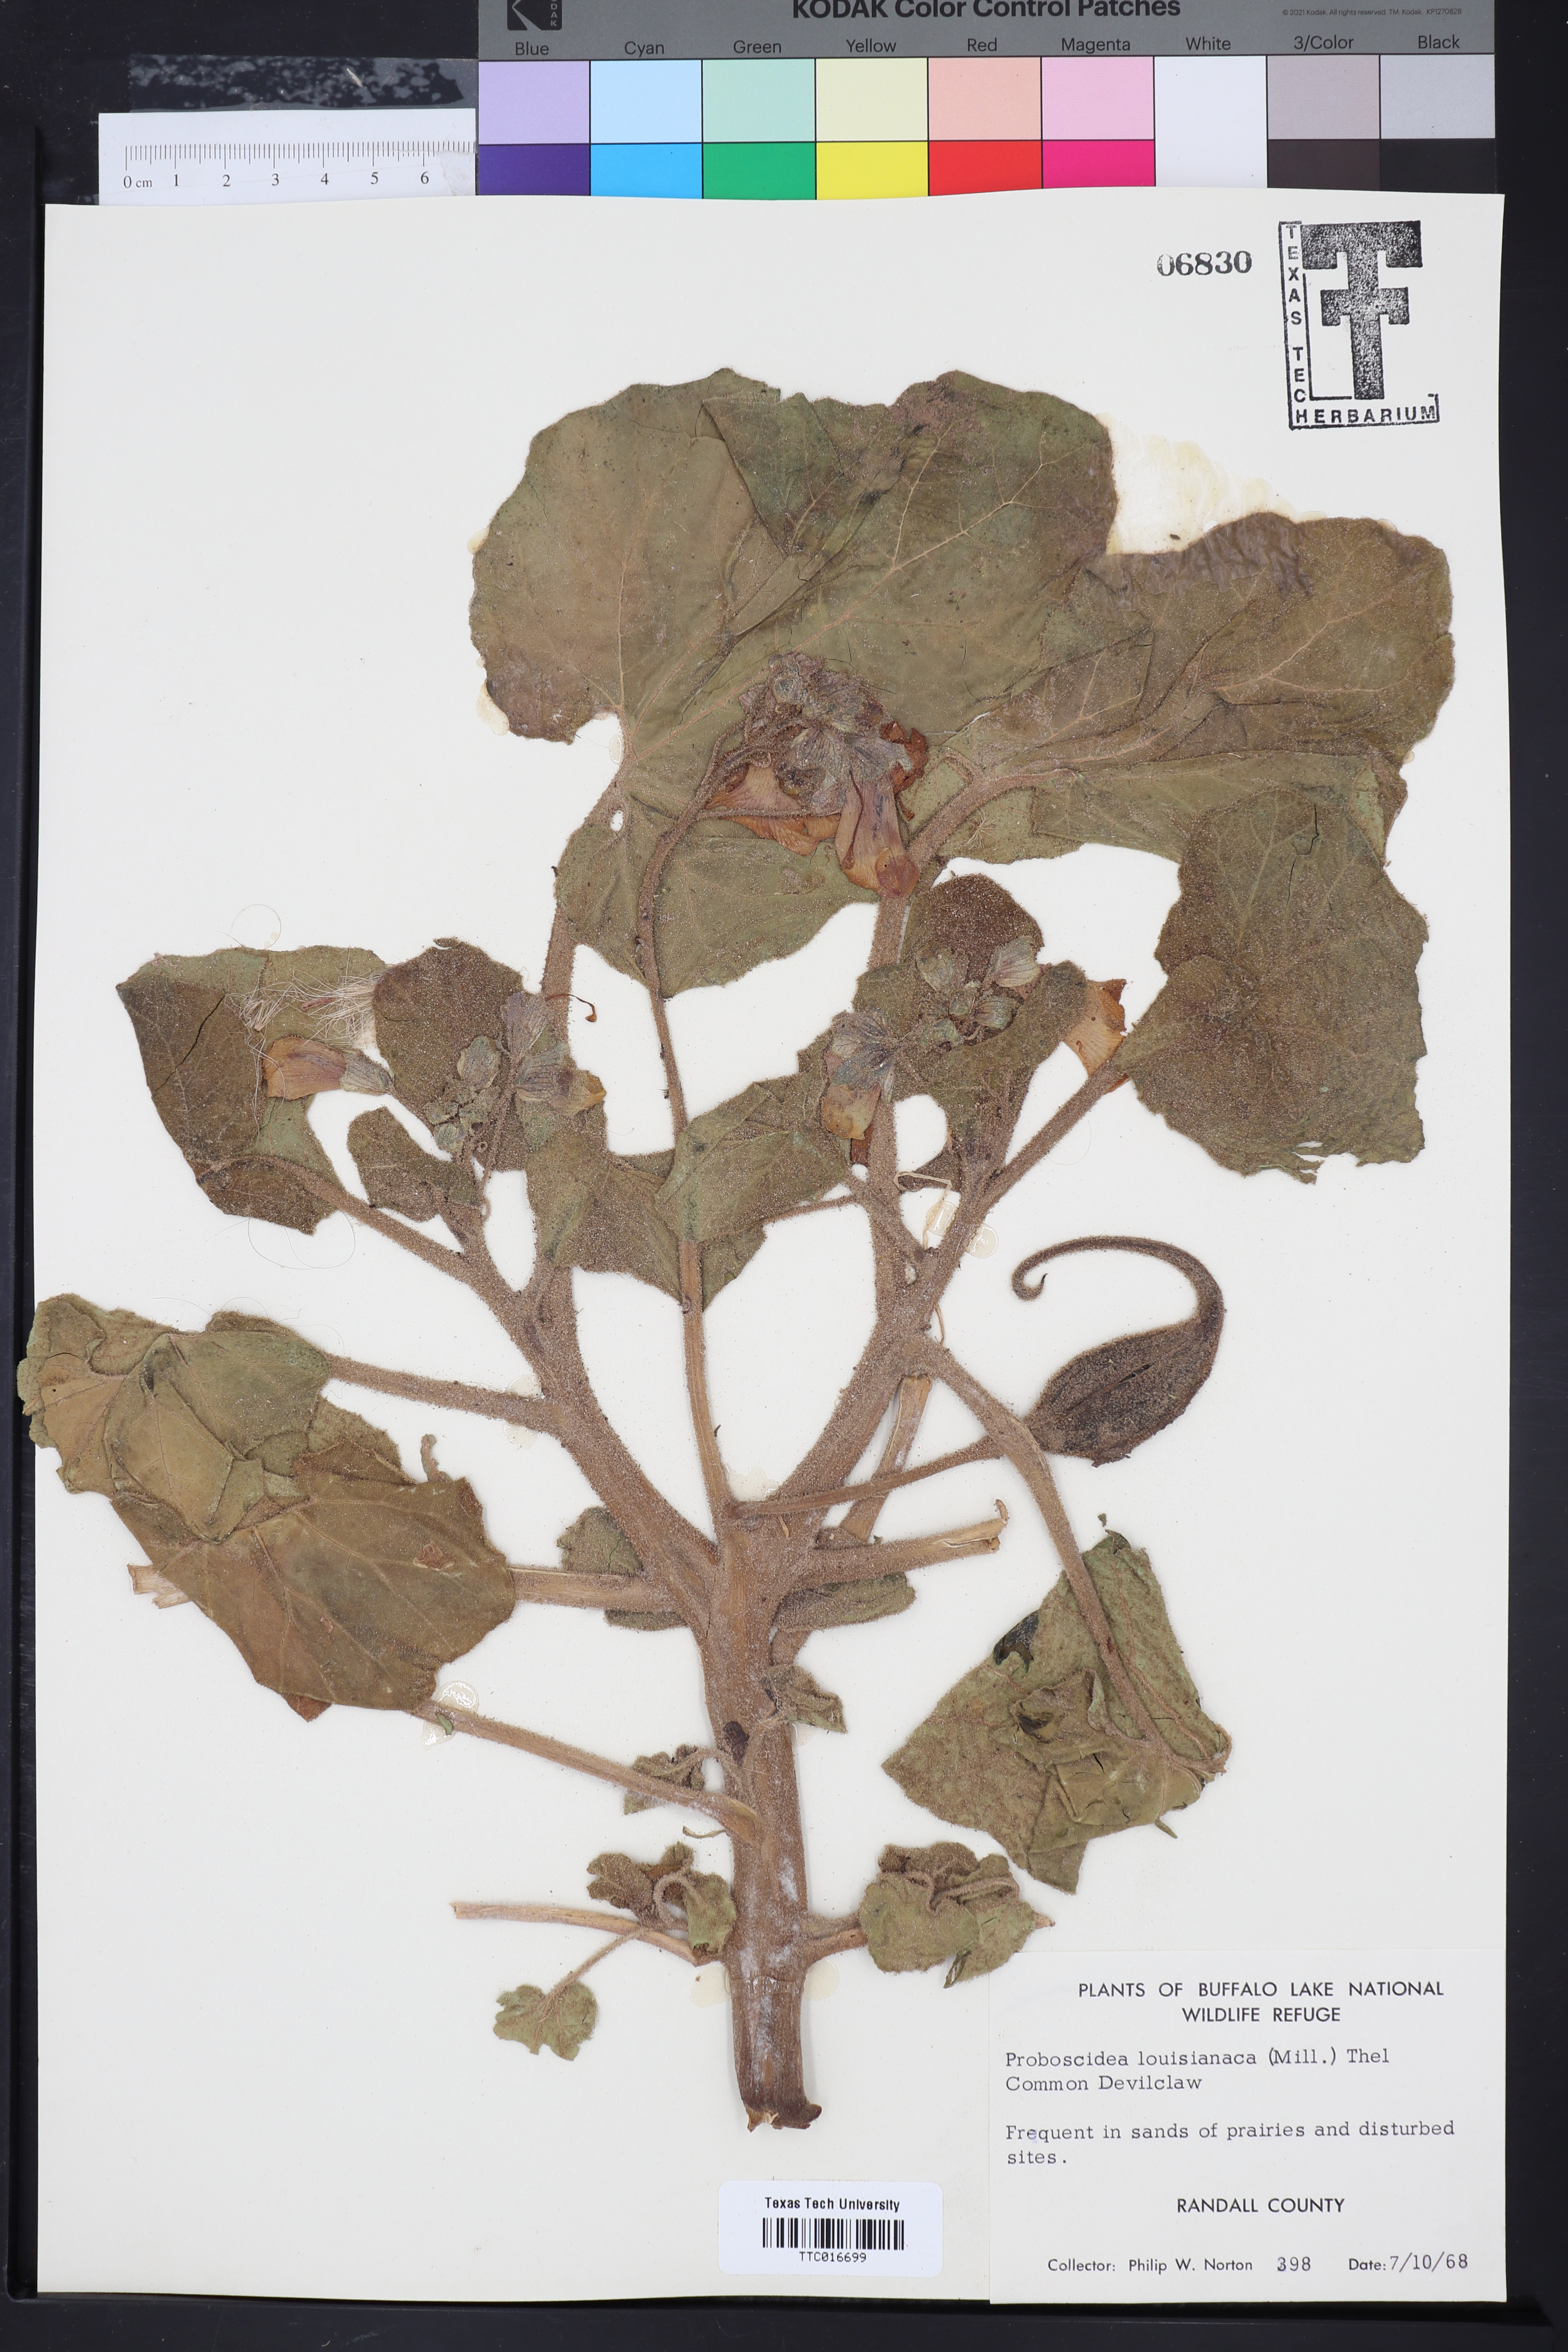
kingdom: Plantae
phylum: Tracheophyta
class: Magnoliopsida
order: Lamiales
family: Martyniaceae
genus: Proboscidea
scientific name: Proboscidea louisianica
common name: Elephant tusks
